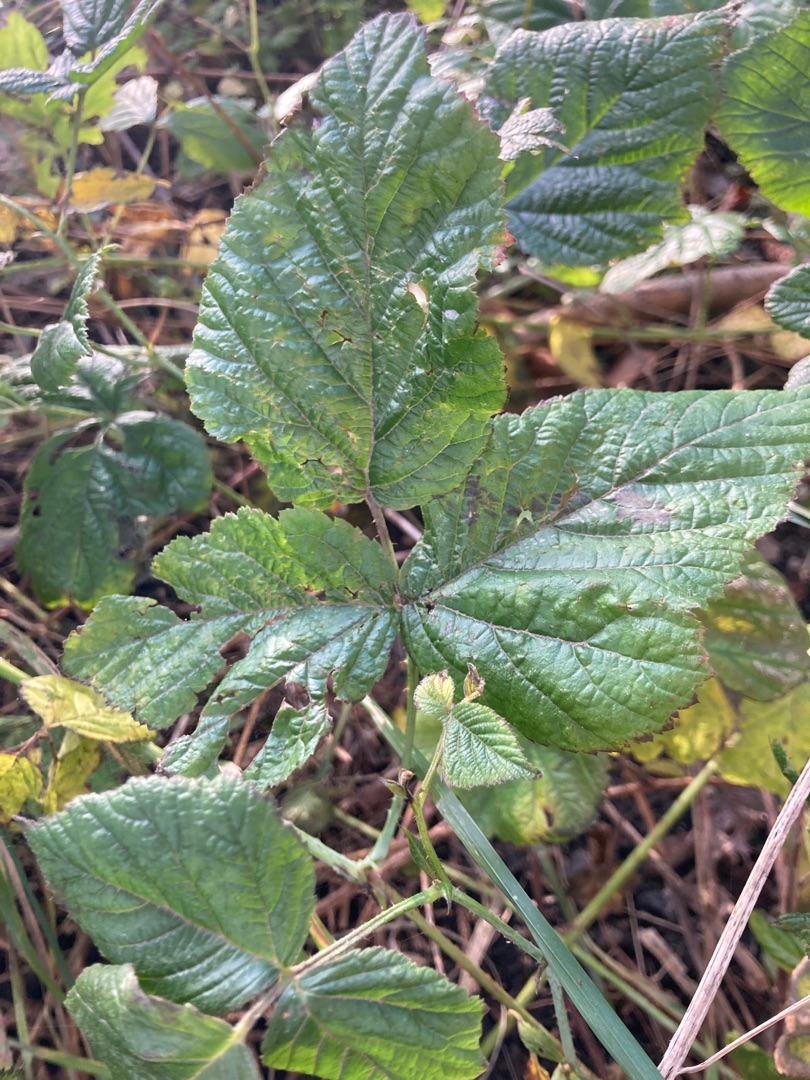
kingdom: Plantae
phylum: Tracheophyta
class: Magnoliopsida
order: Rosales
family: Rosaceae
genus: Rubus
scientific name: Rubus
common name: Klyngerslægten
